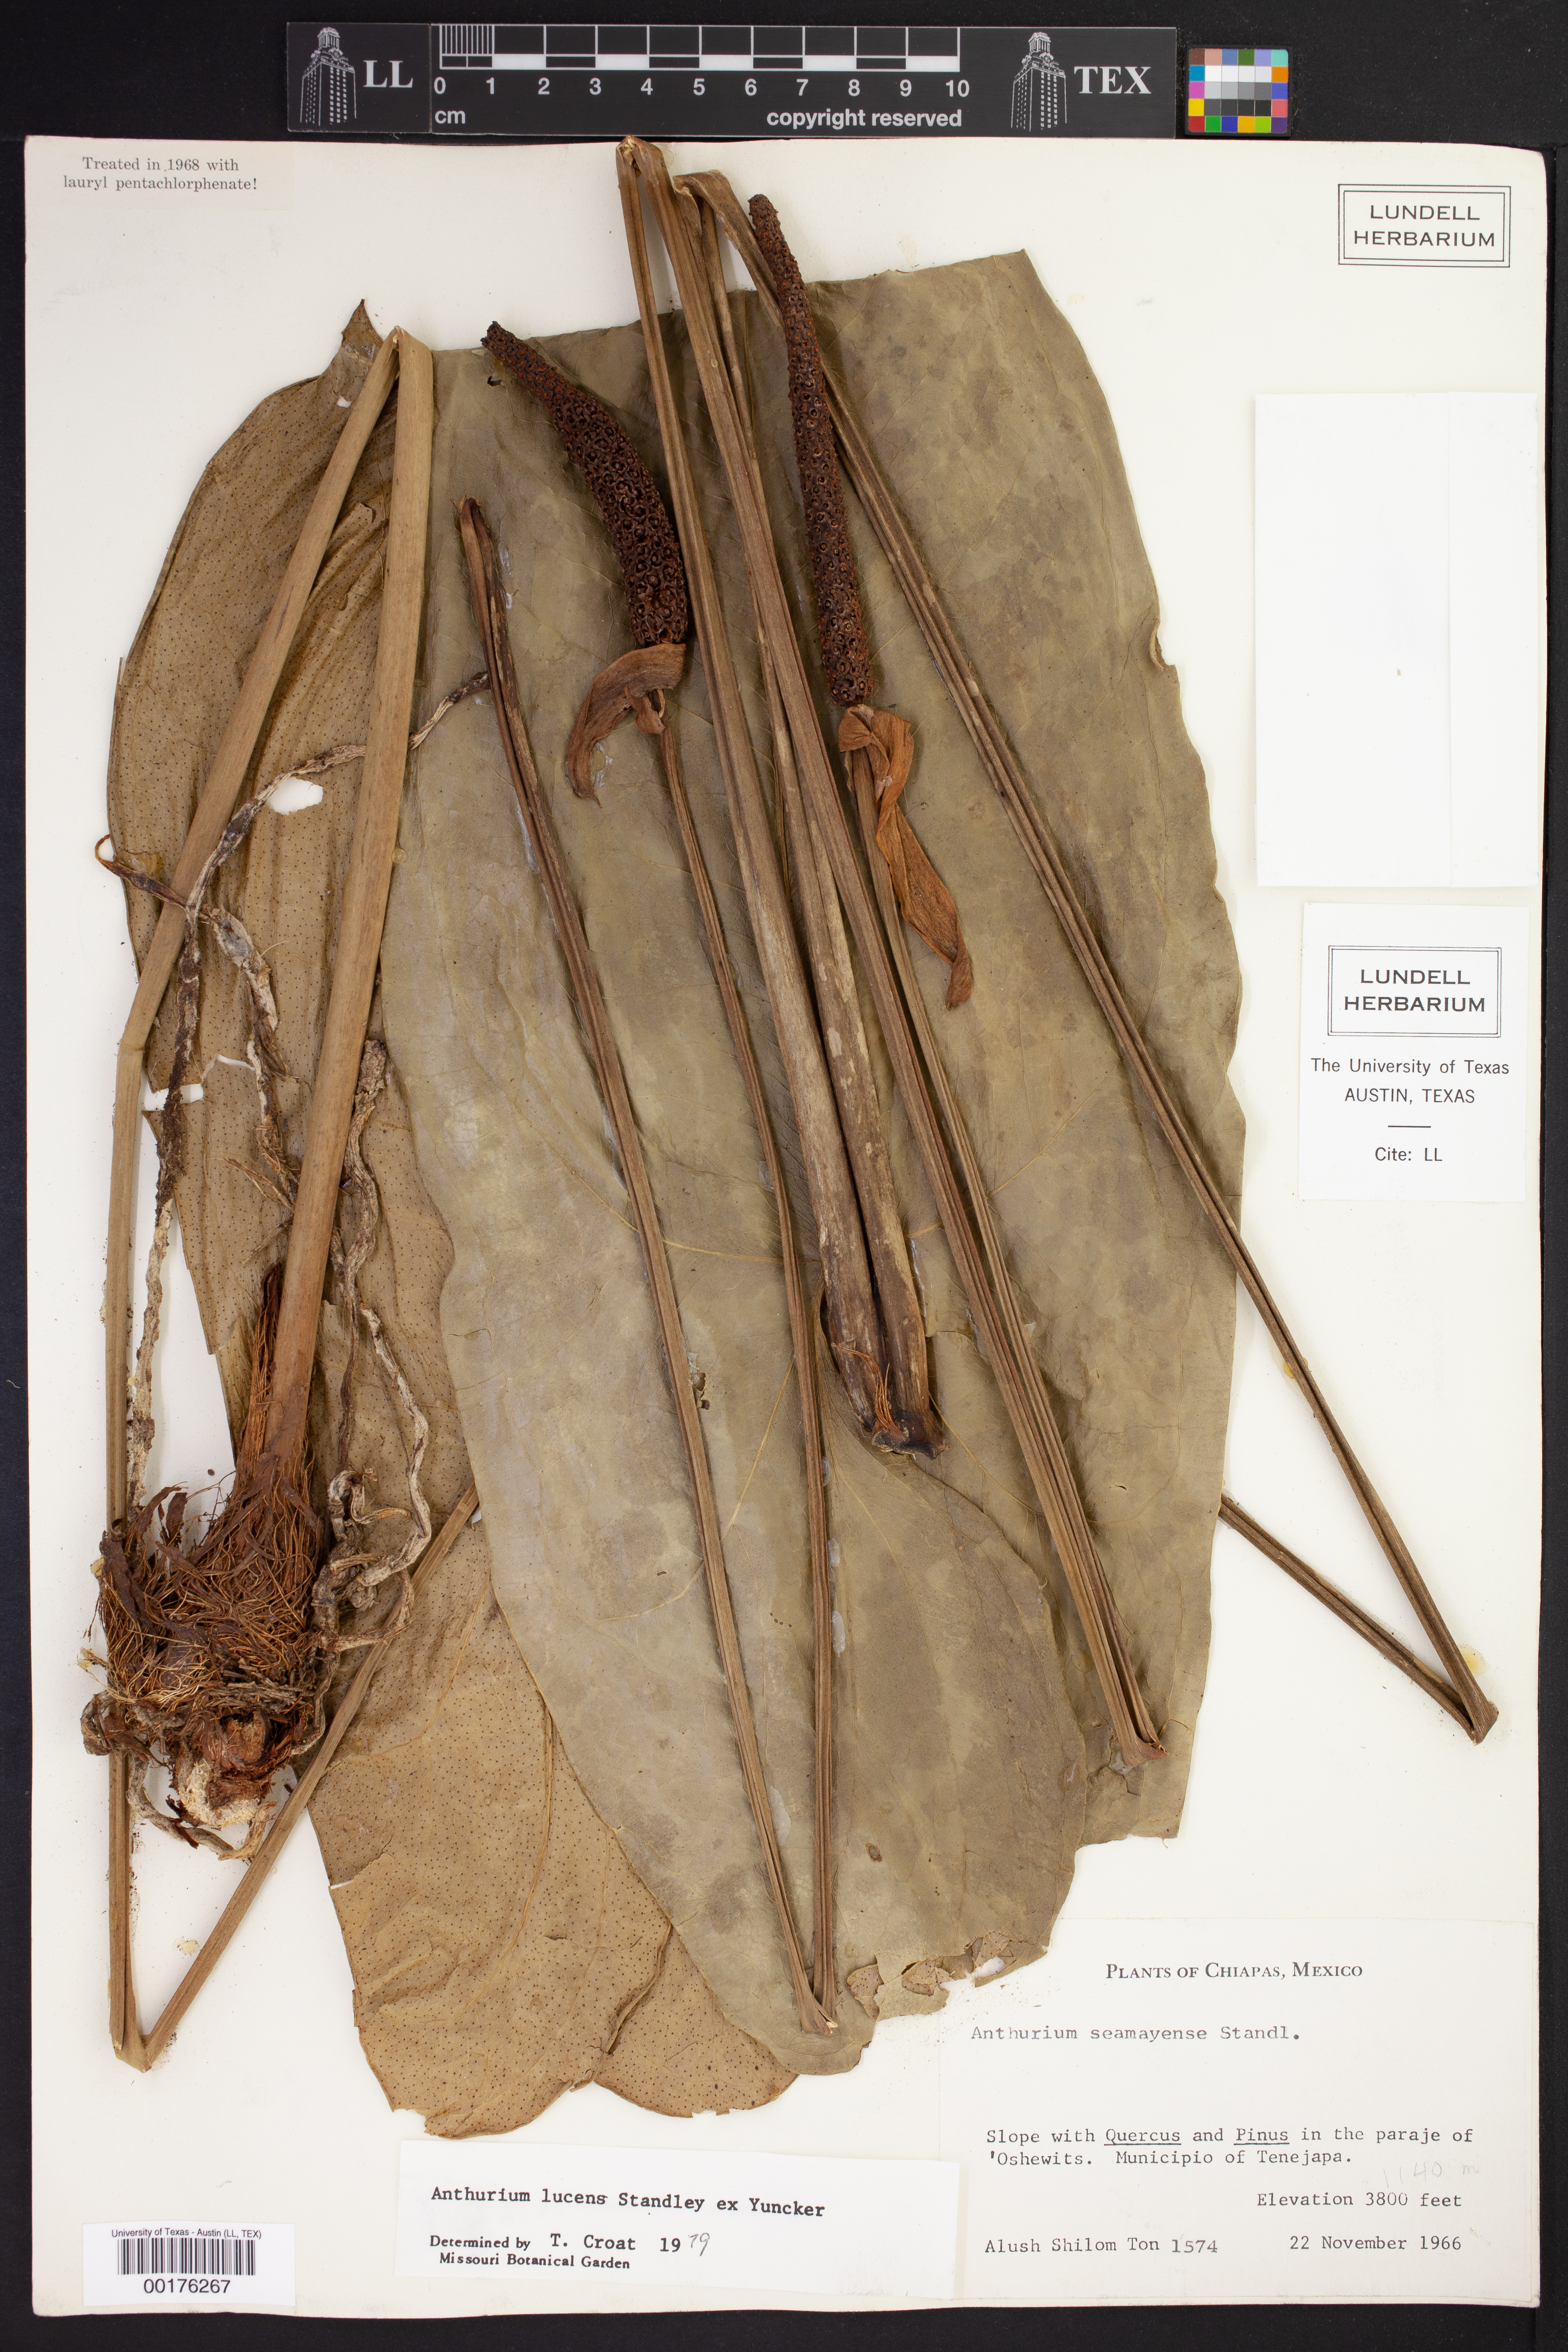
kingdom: Plantae
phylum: Tracheophyta
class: Liliopsida
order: Alismatales
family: Araceae
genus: Anthurium
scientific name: Anthurium lucens
